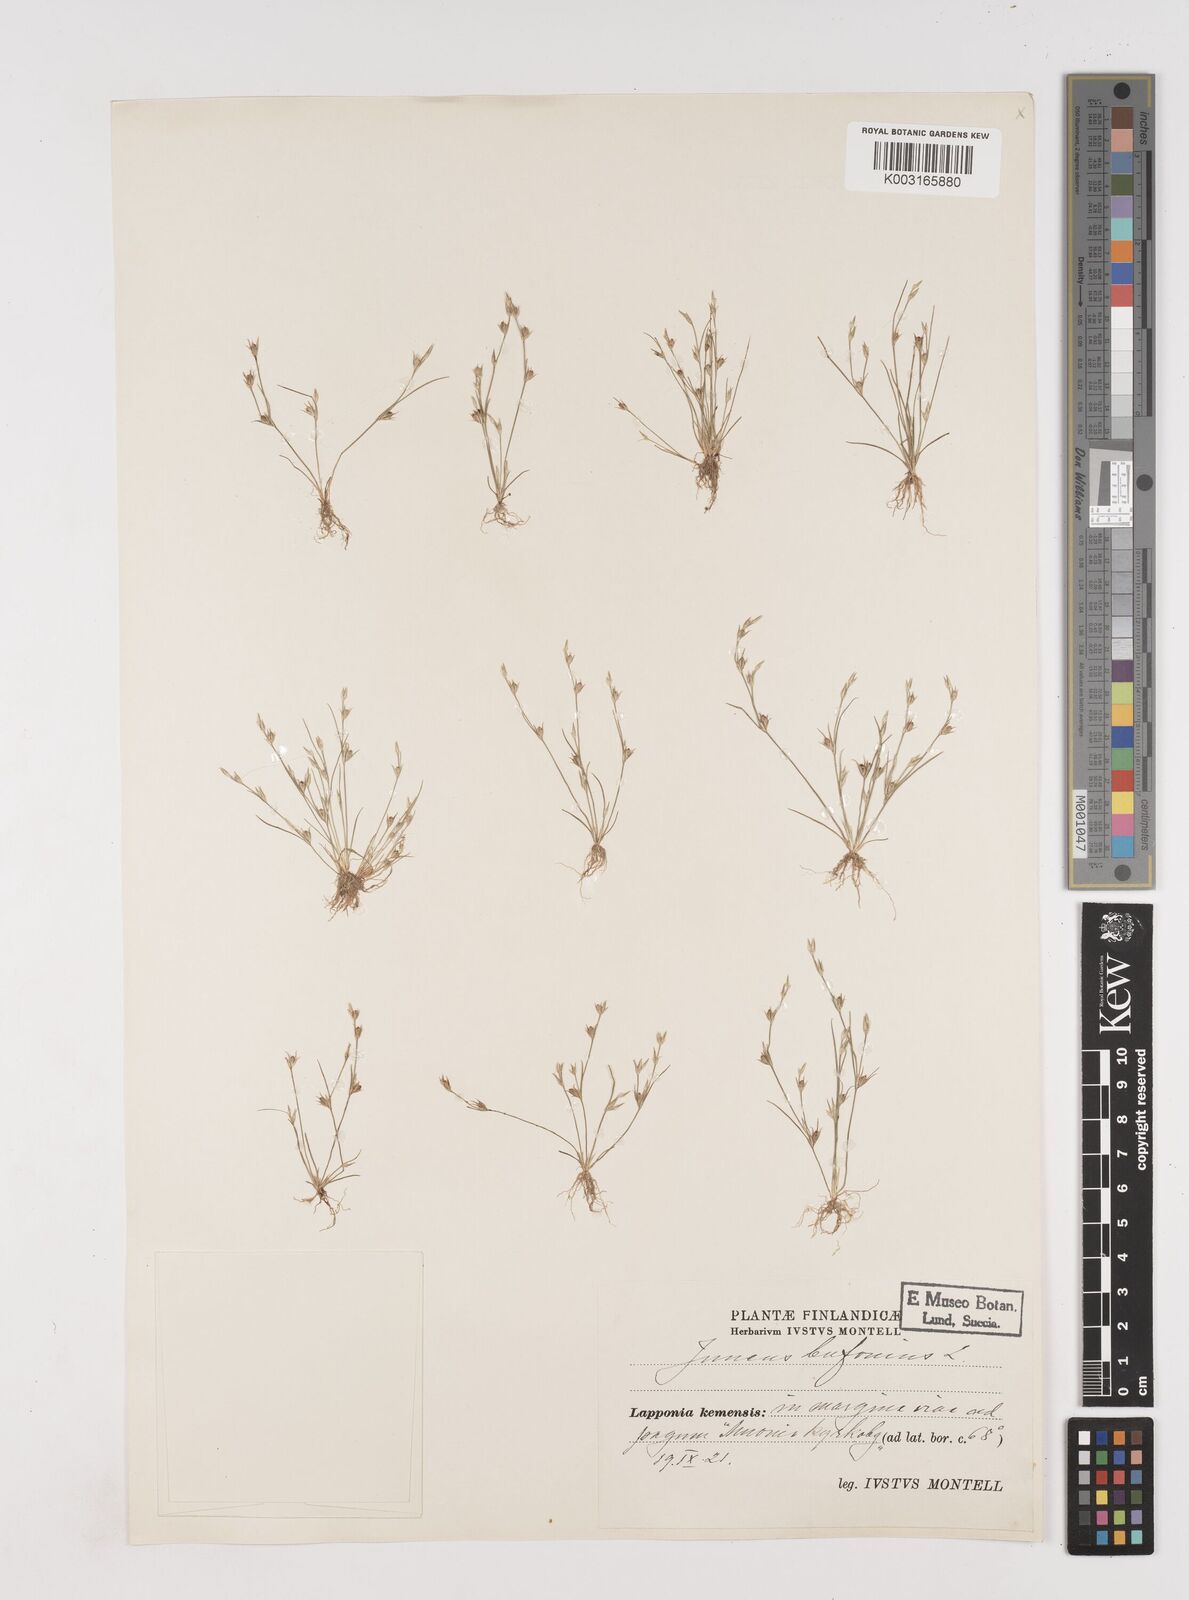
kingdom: Plantae
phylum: Tracheophyta
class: Liliopsida
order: Poales
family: Juncaceae
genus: Juncus
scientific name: Juncus bufonius
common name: Toad rush
